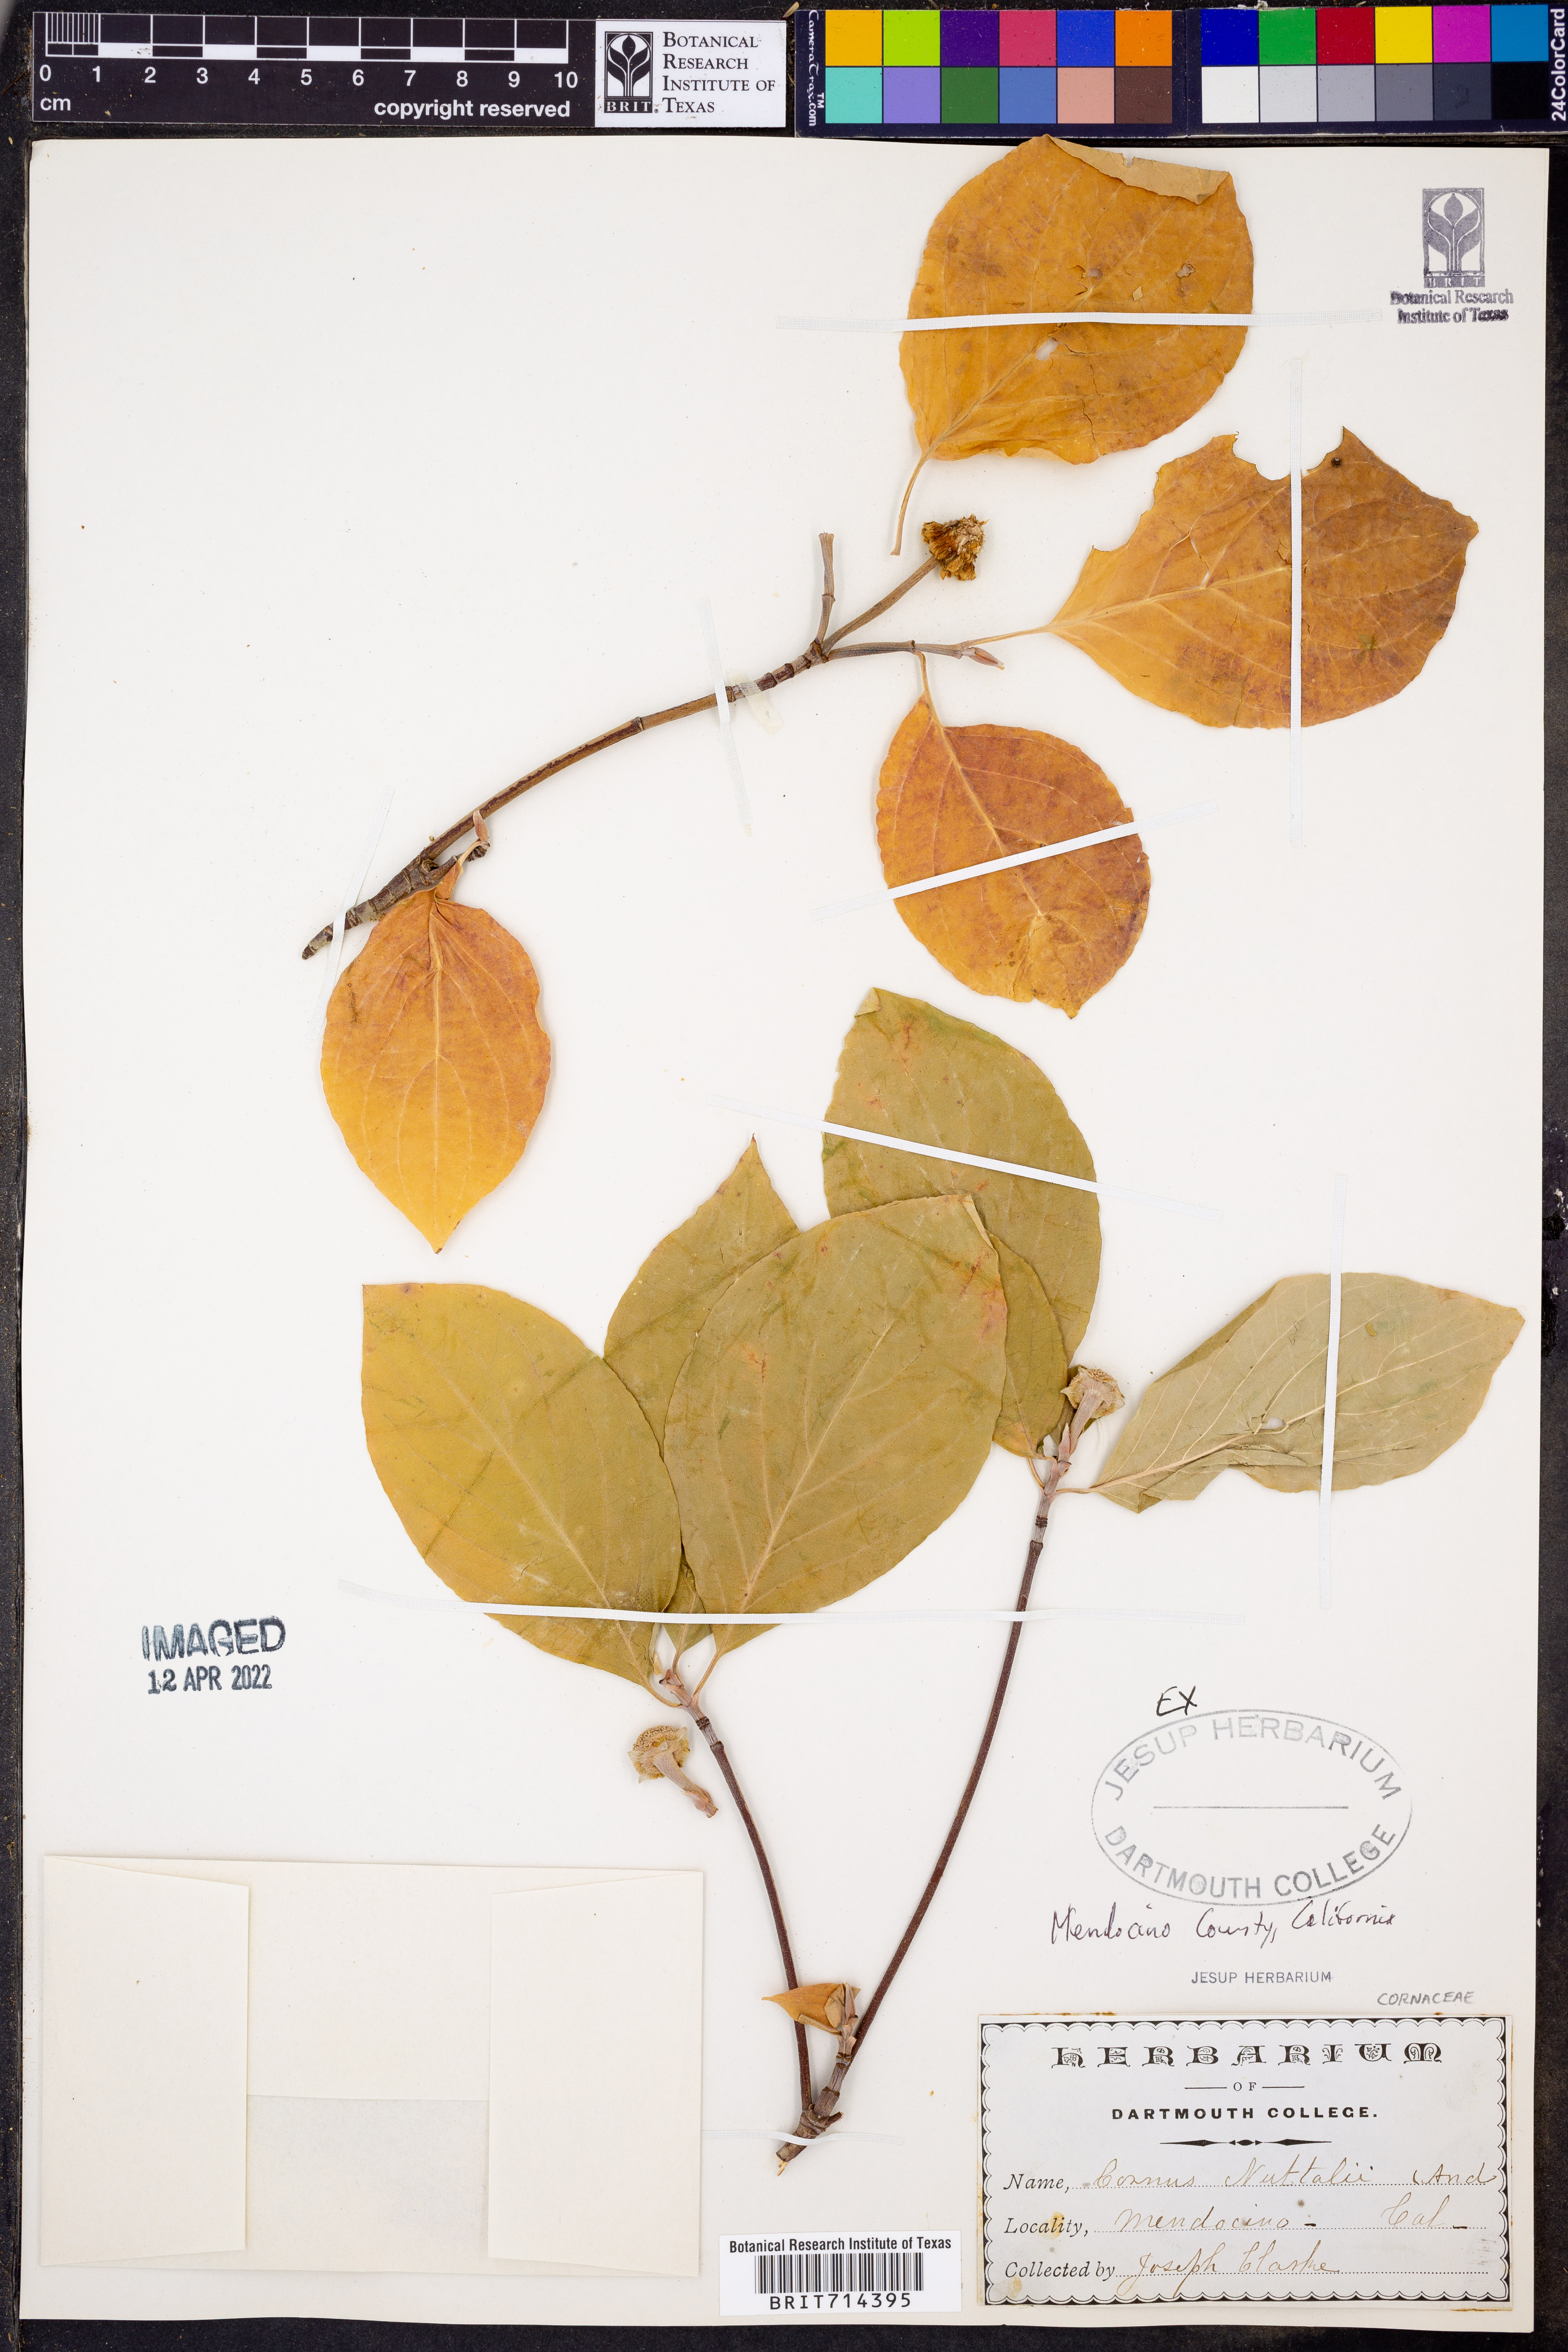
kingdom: Plantae
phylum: Tracheophyta
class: Magnoliopsida
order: Cornales
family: Cornaceae
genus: Cornus
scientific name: Cornus nuttallii
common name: Pacific dogwood
